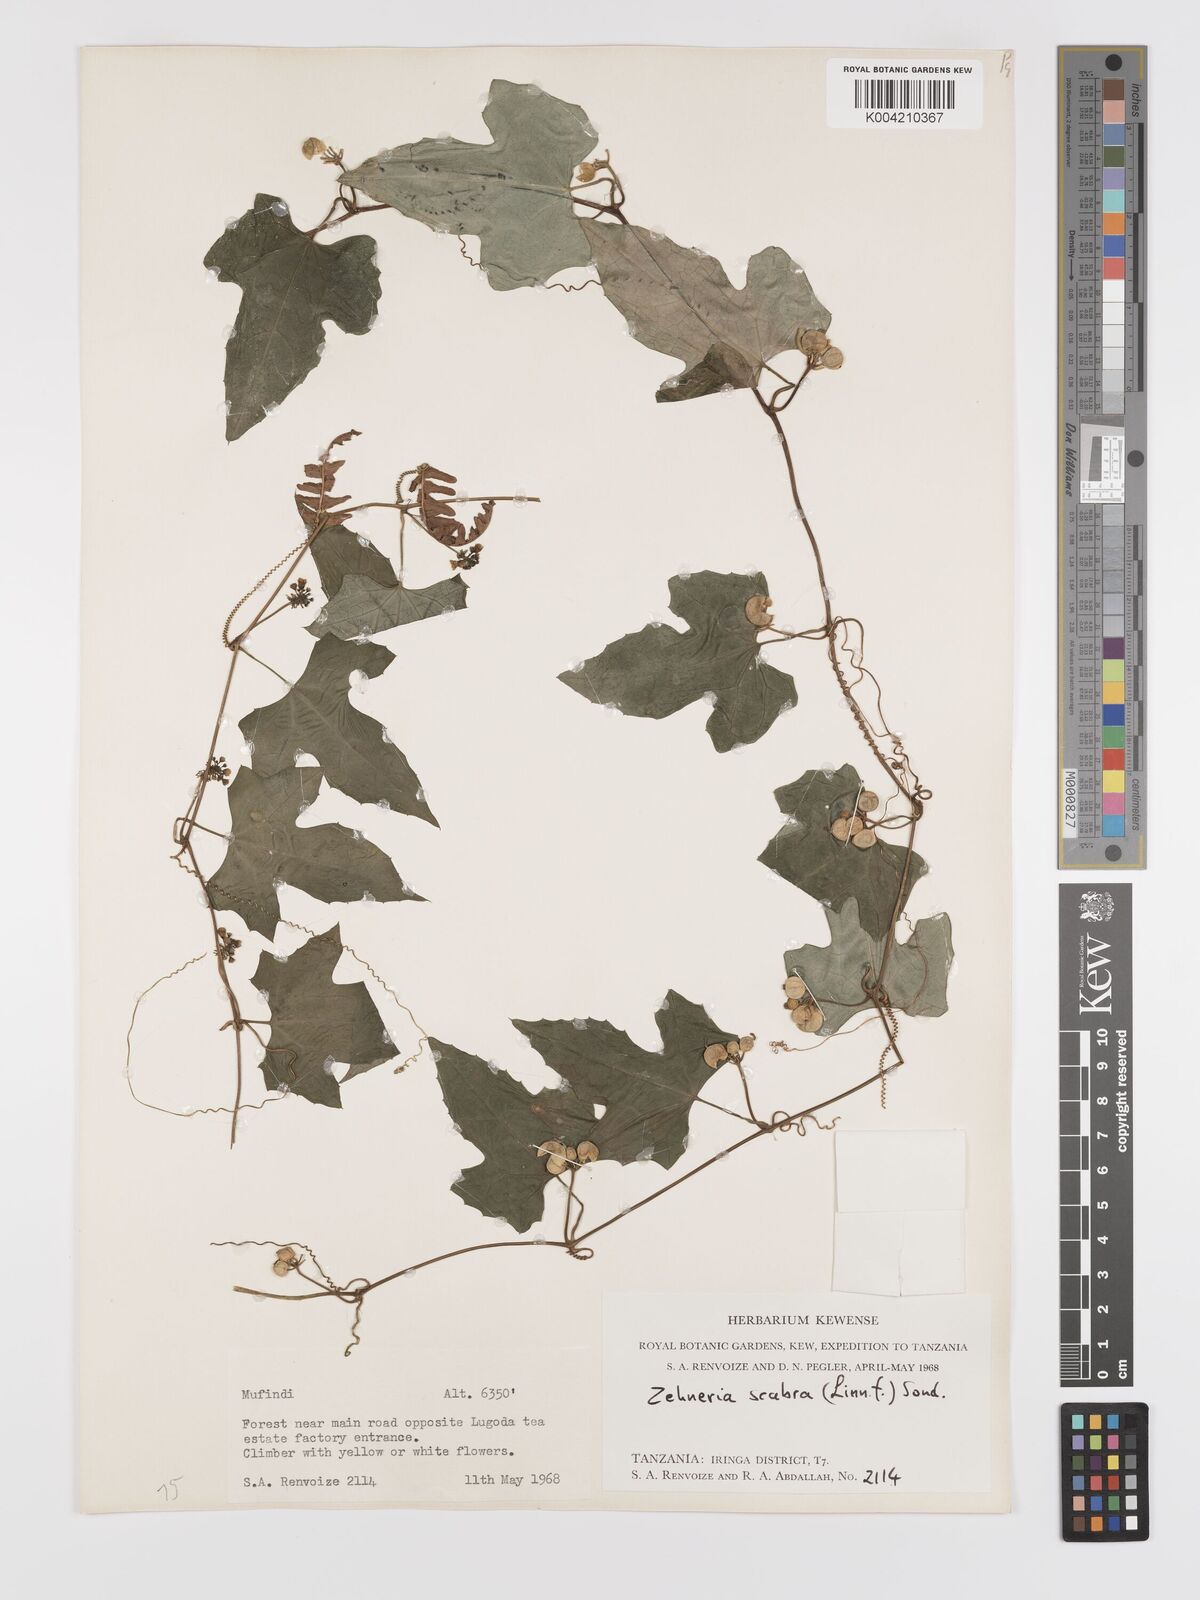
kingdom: Plantae
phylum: Tracheophyta
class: Magnoliopsida
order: Cucurbitales
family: Cucurbitaceae
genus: Zehneria
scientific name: Zehneria emirnensis
